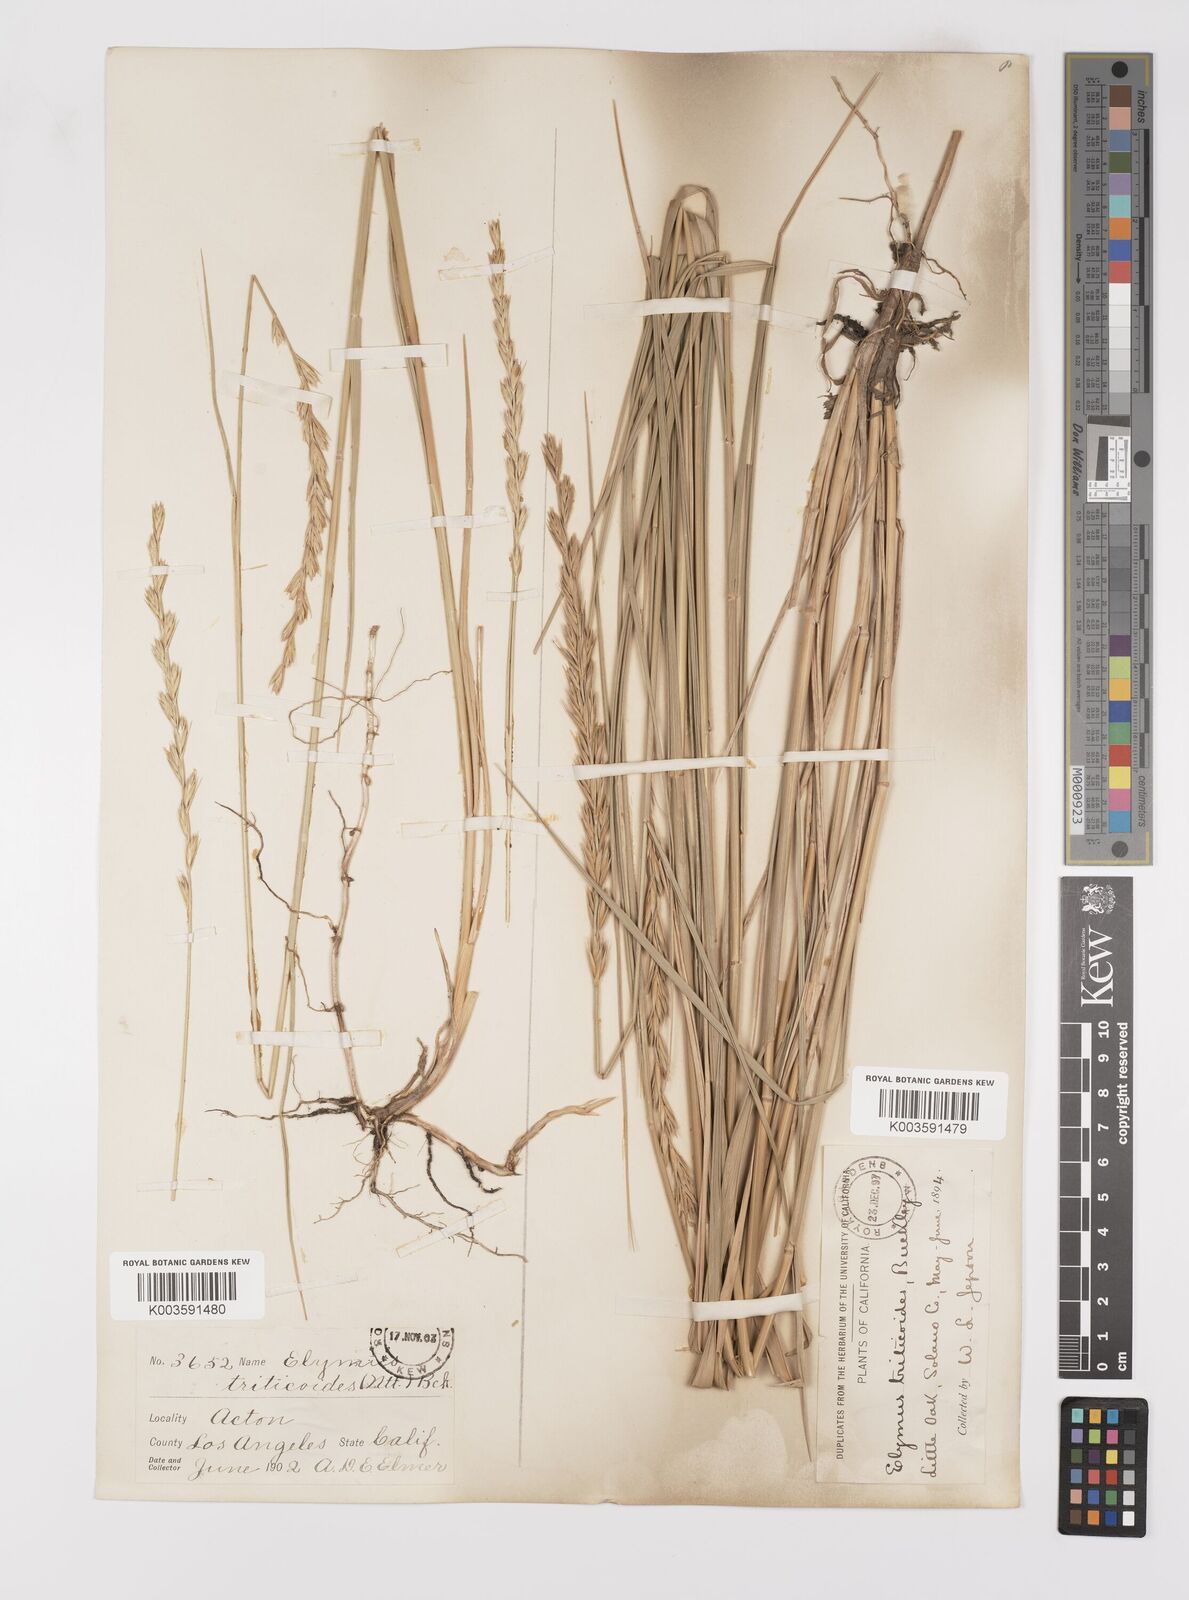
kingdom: Plantae
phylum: Tracheophyta
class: Liliopsida
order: Poales
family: Poaceae
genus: Leymus
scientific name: Leymus triticoides
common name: Beardless wild rye
